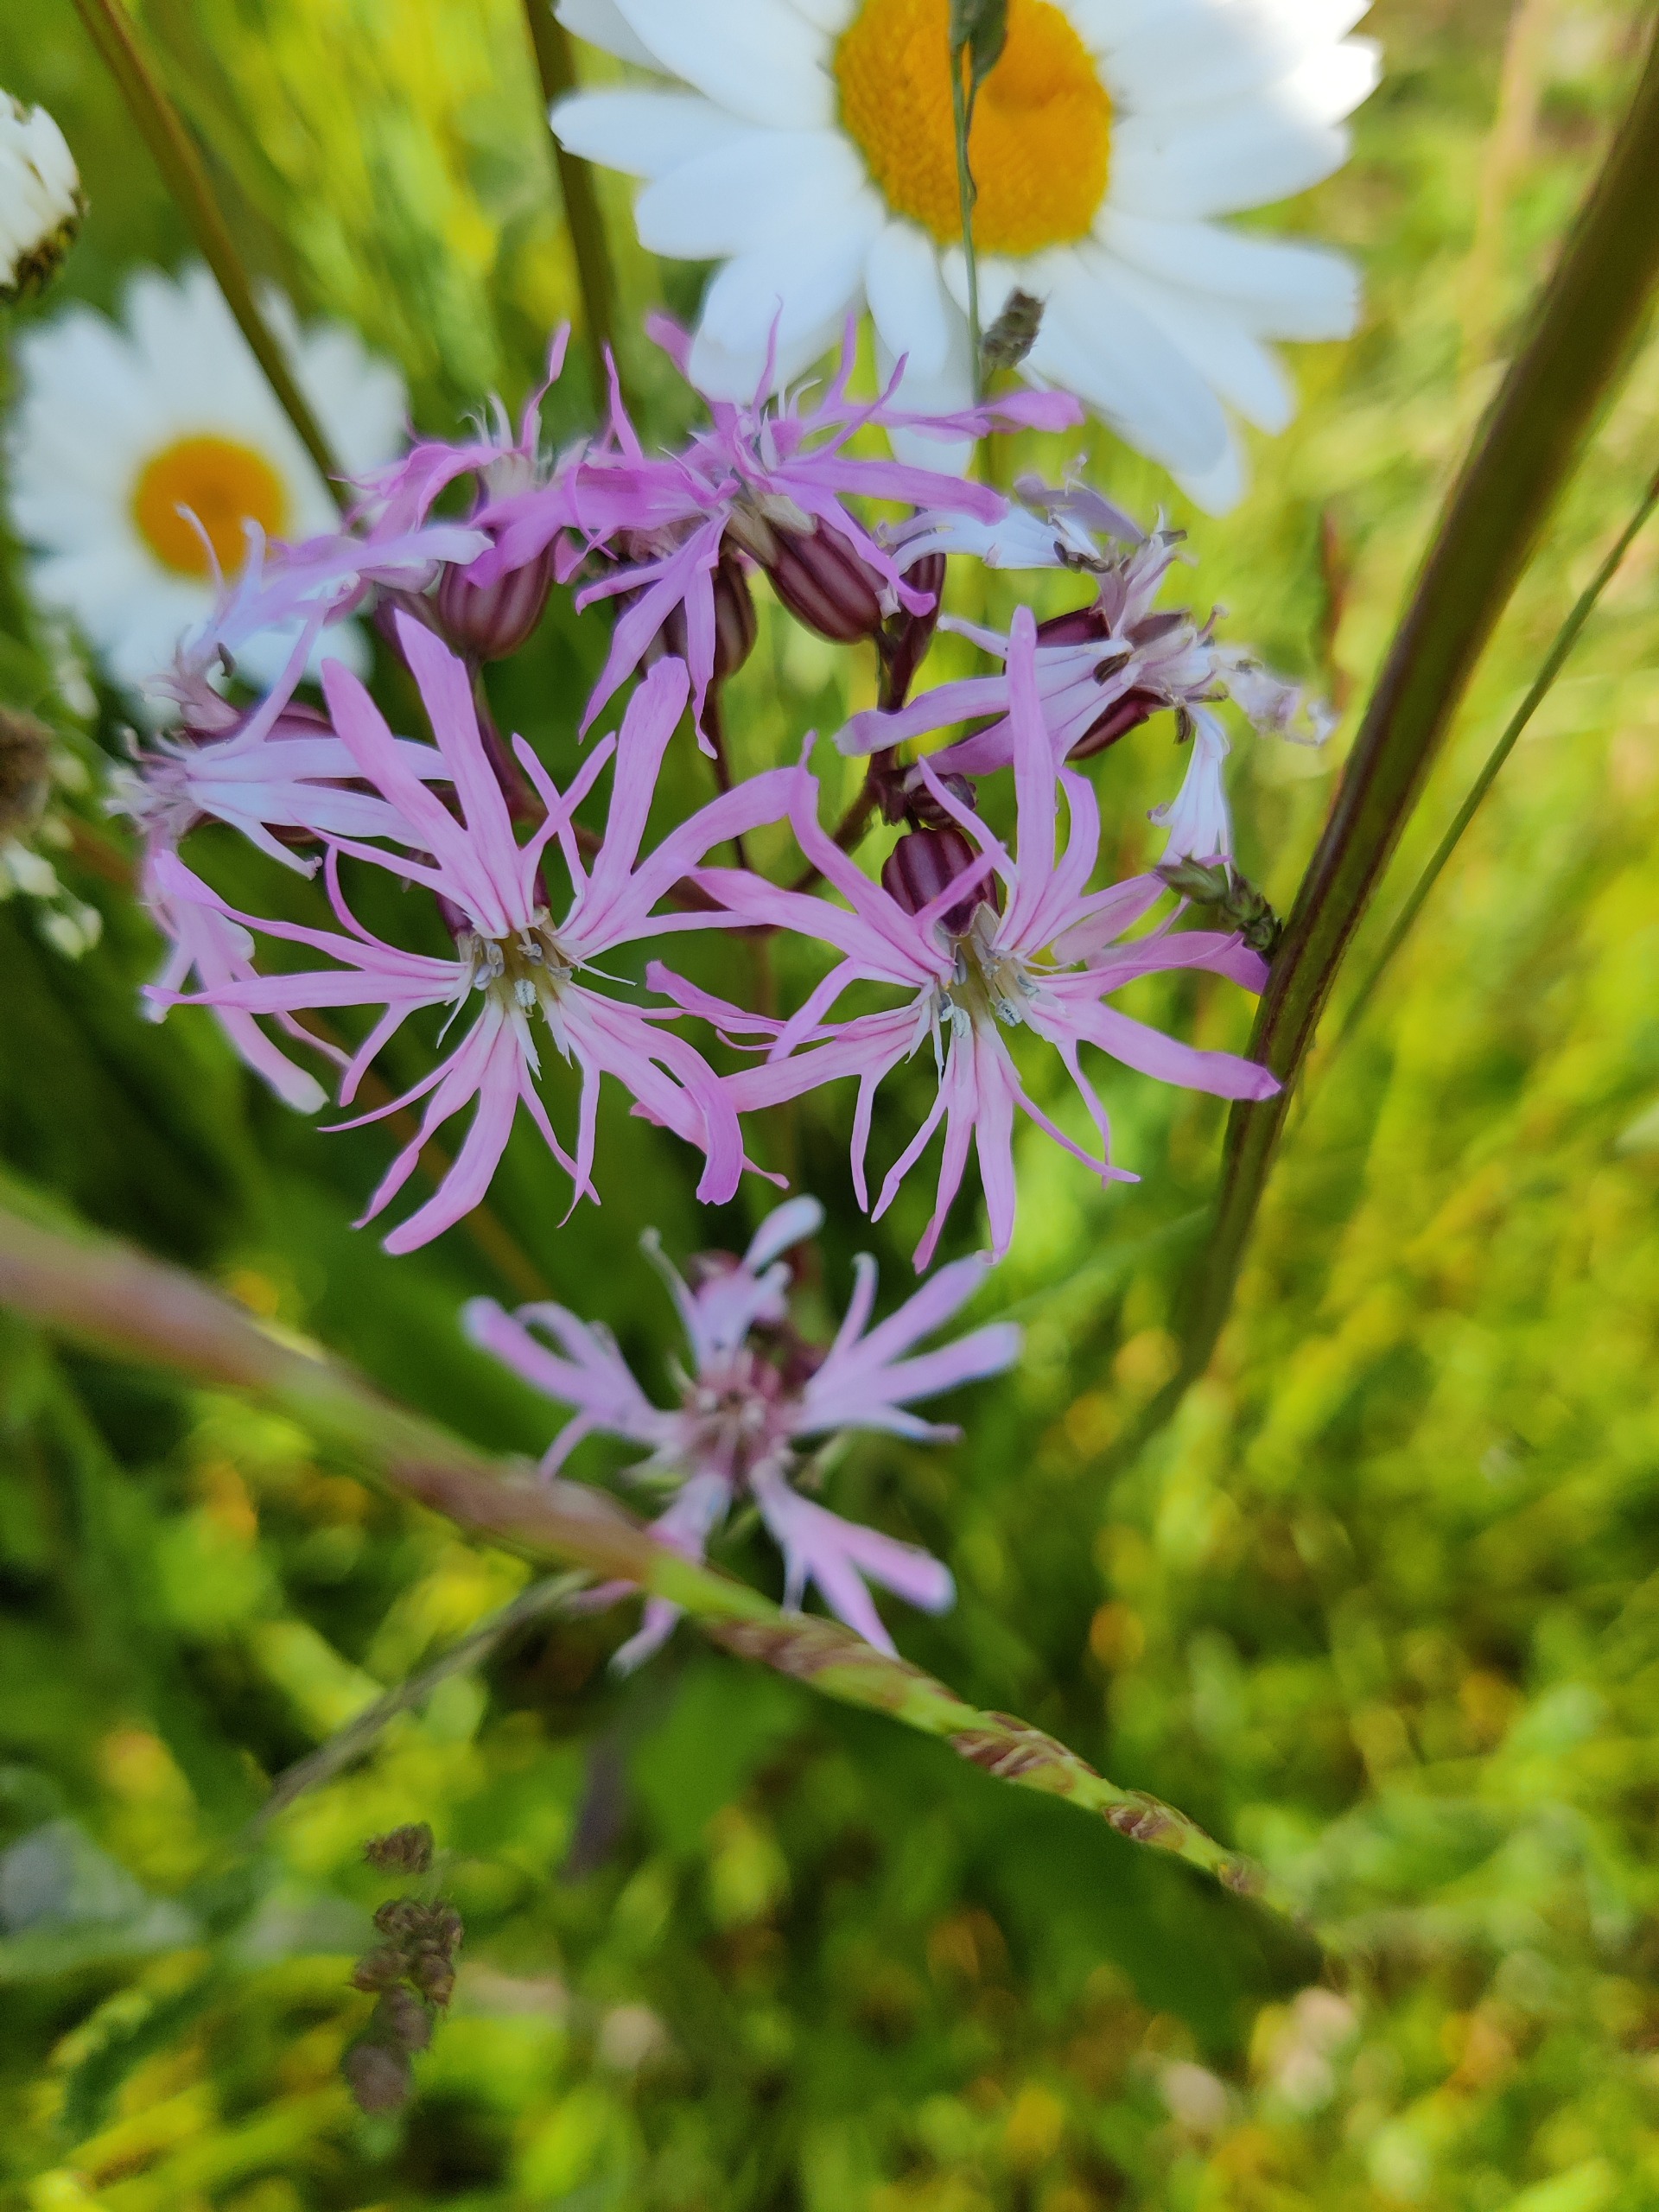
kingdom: Plantae
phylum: Tracheophyta
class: Magnoliopsida
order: Caryophyllales
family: Caryophyllaceae
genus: Silene
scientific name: Silene flos-cuculi
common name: Trævlekrone
